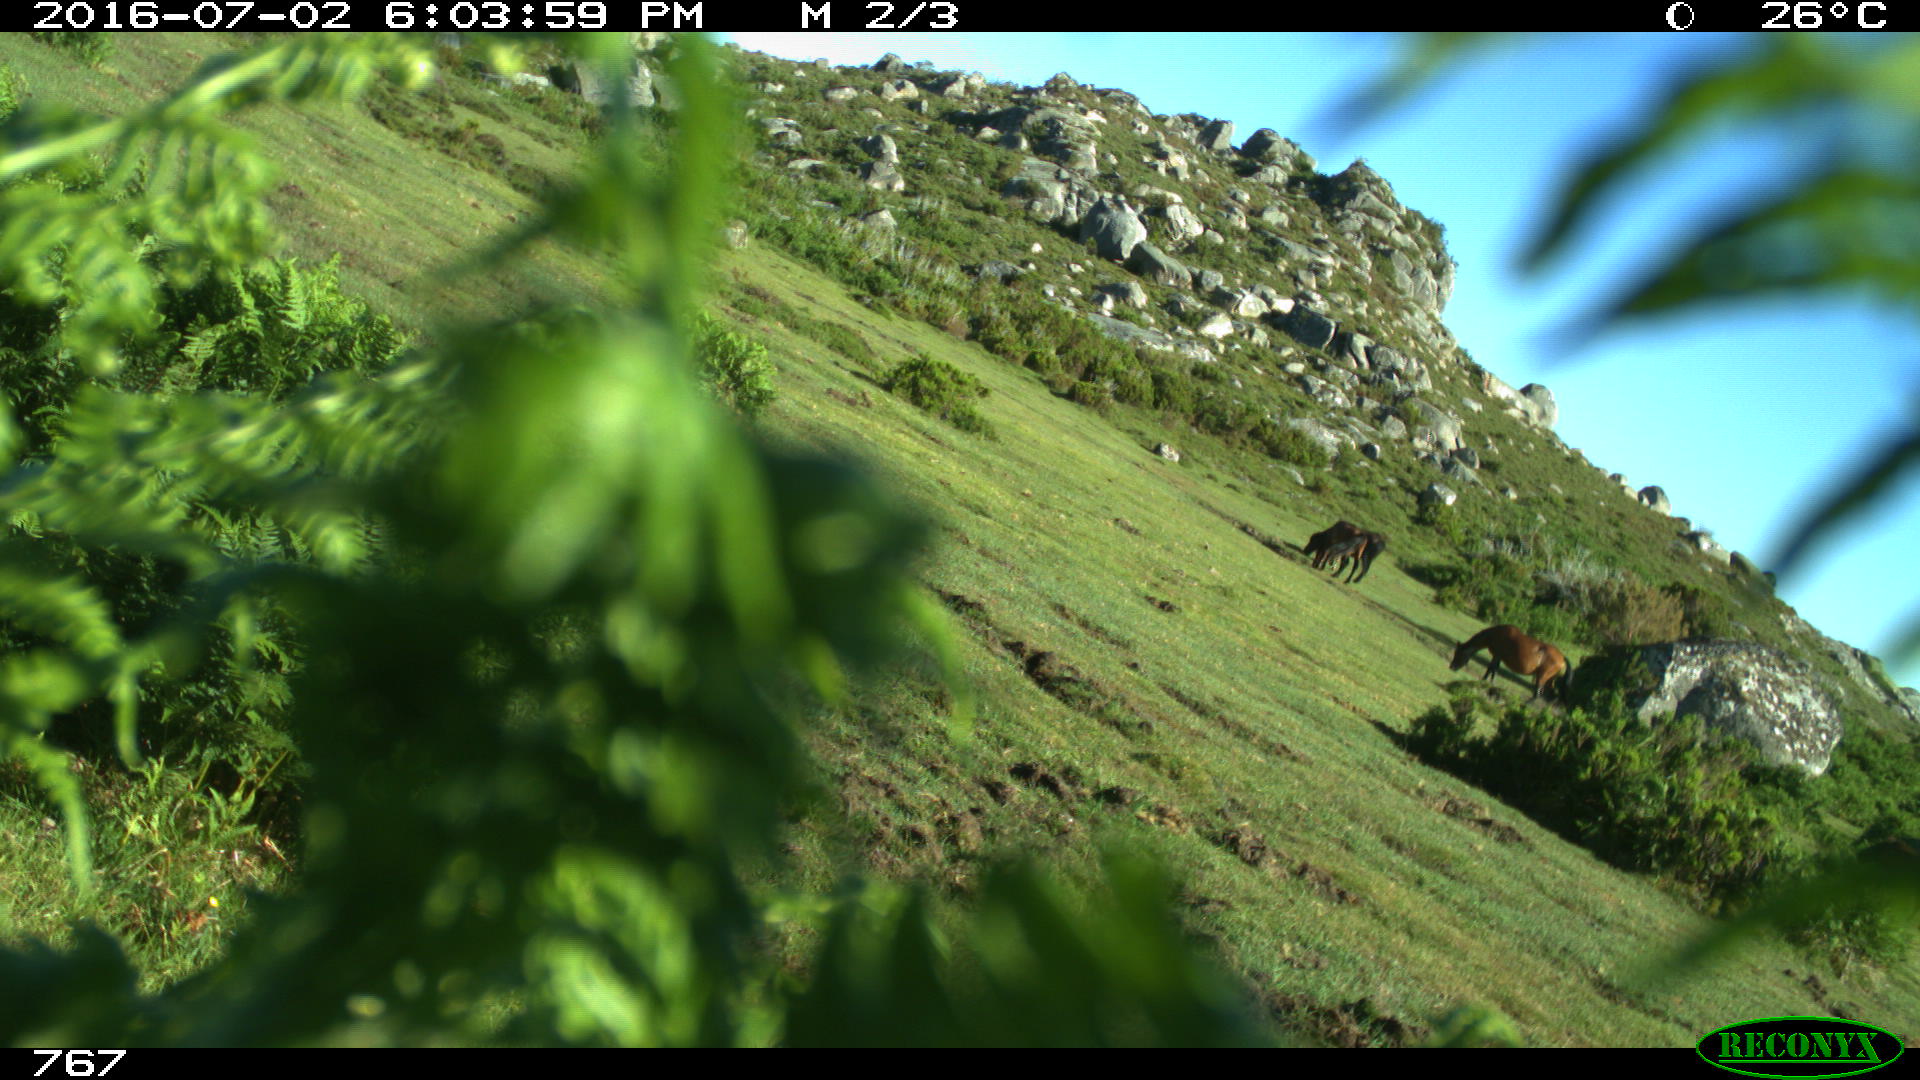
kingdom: Animalia
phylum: Chordata
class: Mammalia
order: Perissodactyla
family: Equidae
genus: Equus
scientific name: Equus caballus
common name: Horse
